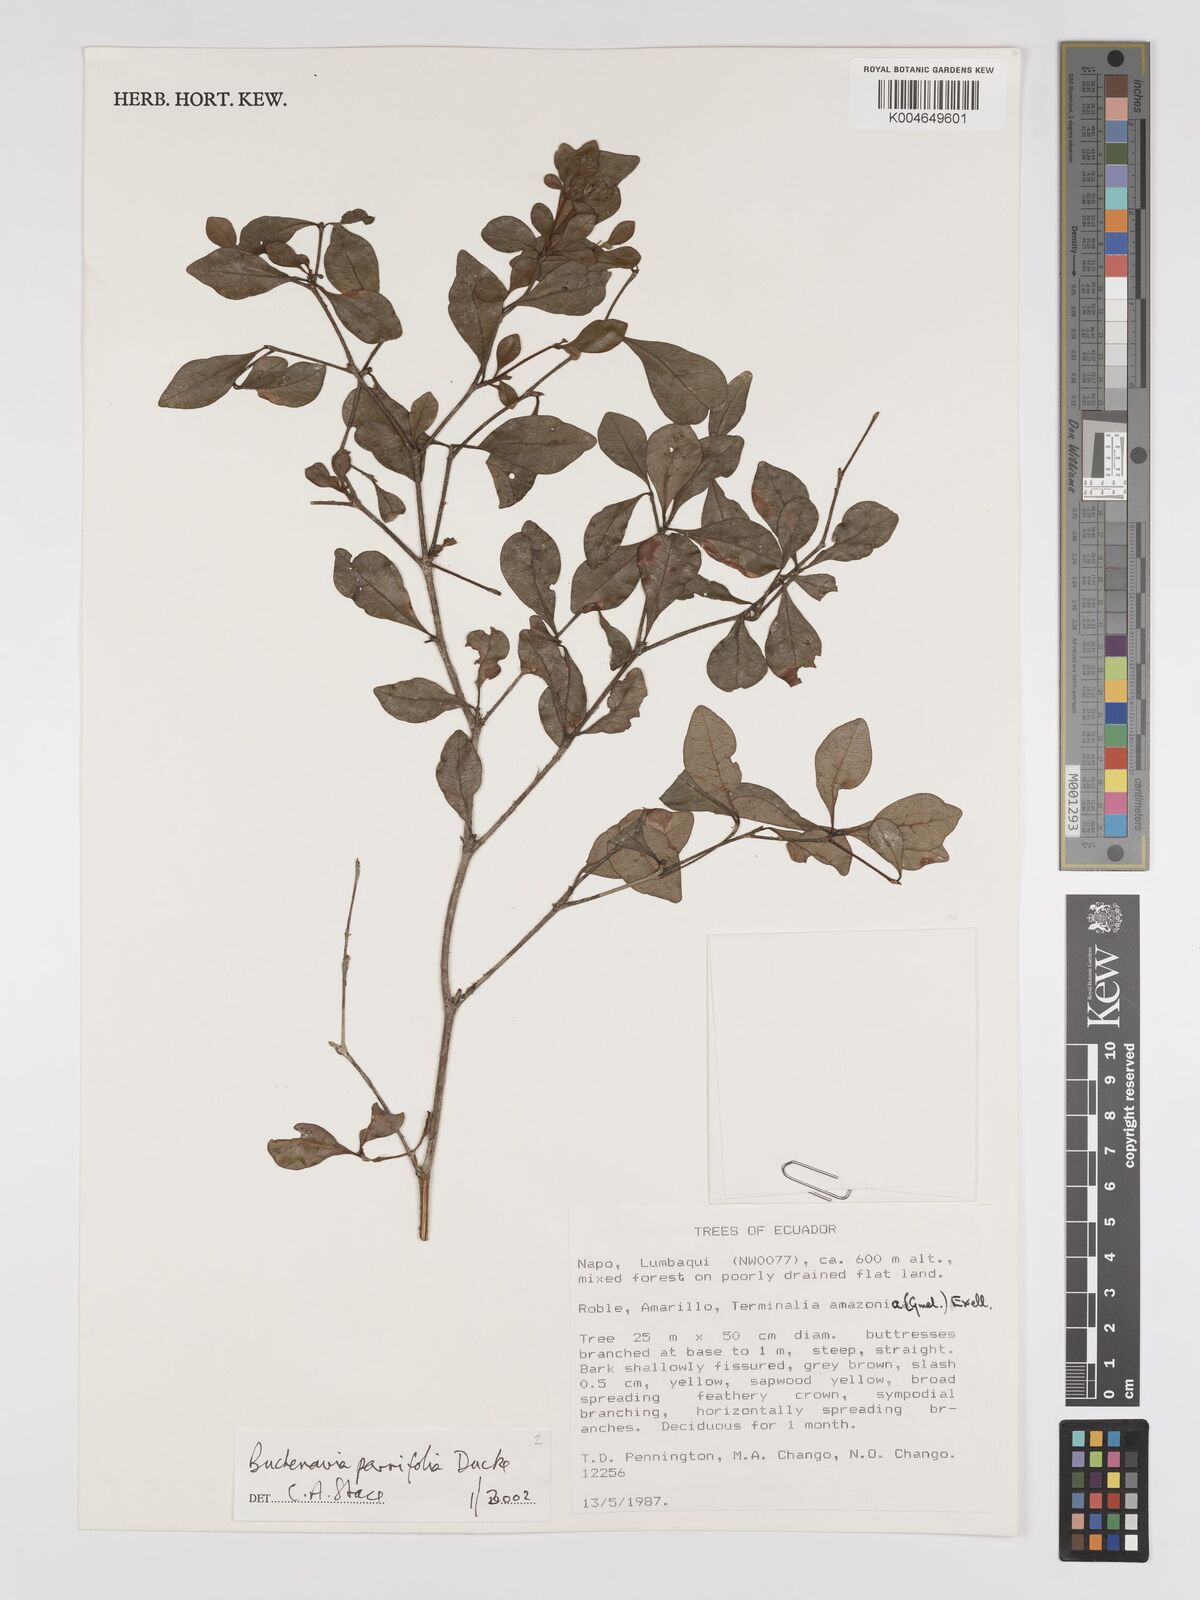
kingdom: Plantae
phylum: Tracheophyta
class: Magnoliopsida
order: Myrtales
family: Combretaceae
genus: Terminalia
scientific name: Terminalia parvifolia
